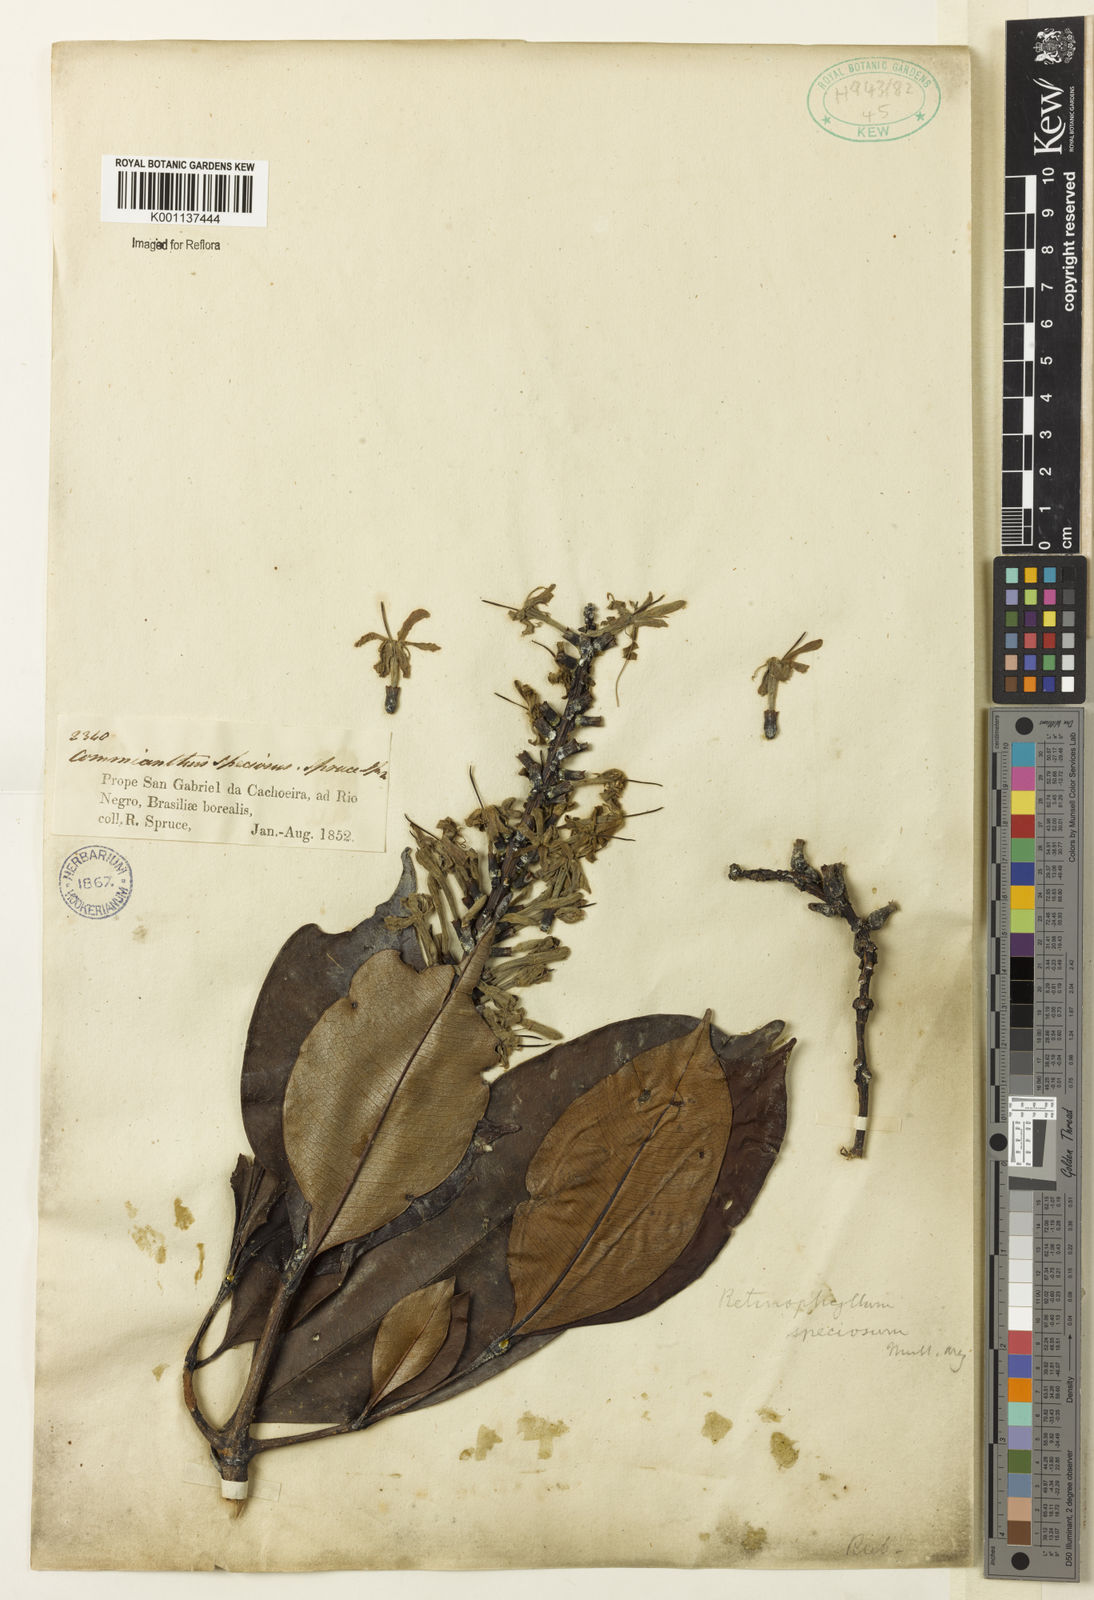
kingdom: Plantae
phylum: Tracheophyta
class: Magnoliopsida
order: Gentianales
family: Rubiaceae
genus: Retiniphyllum
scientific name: Retiniphyllum
